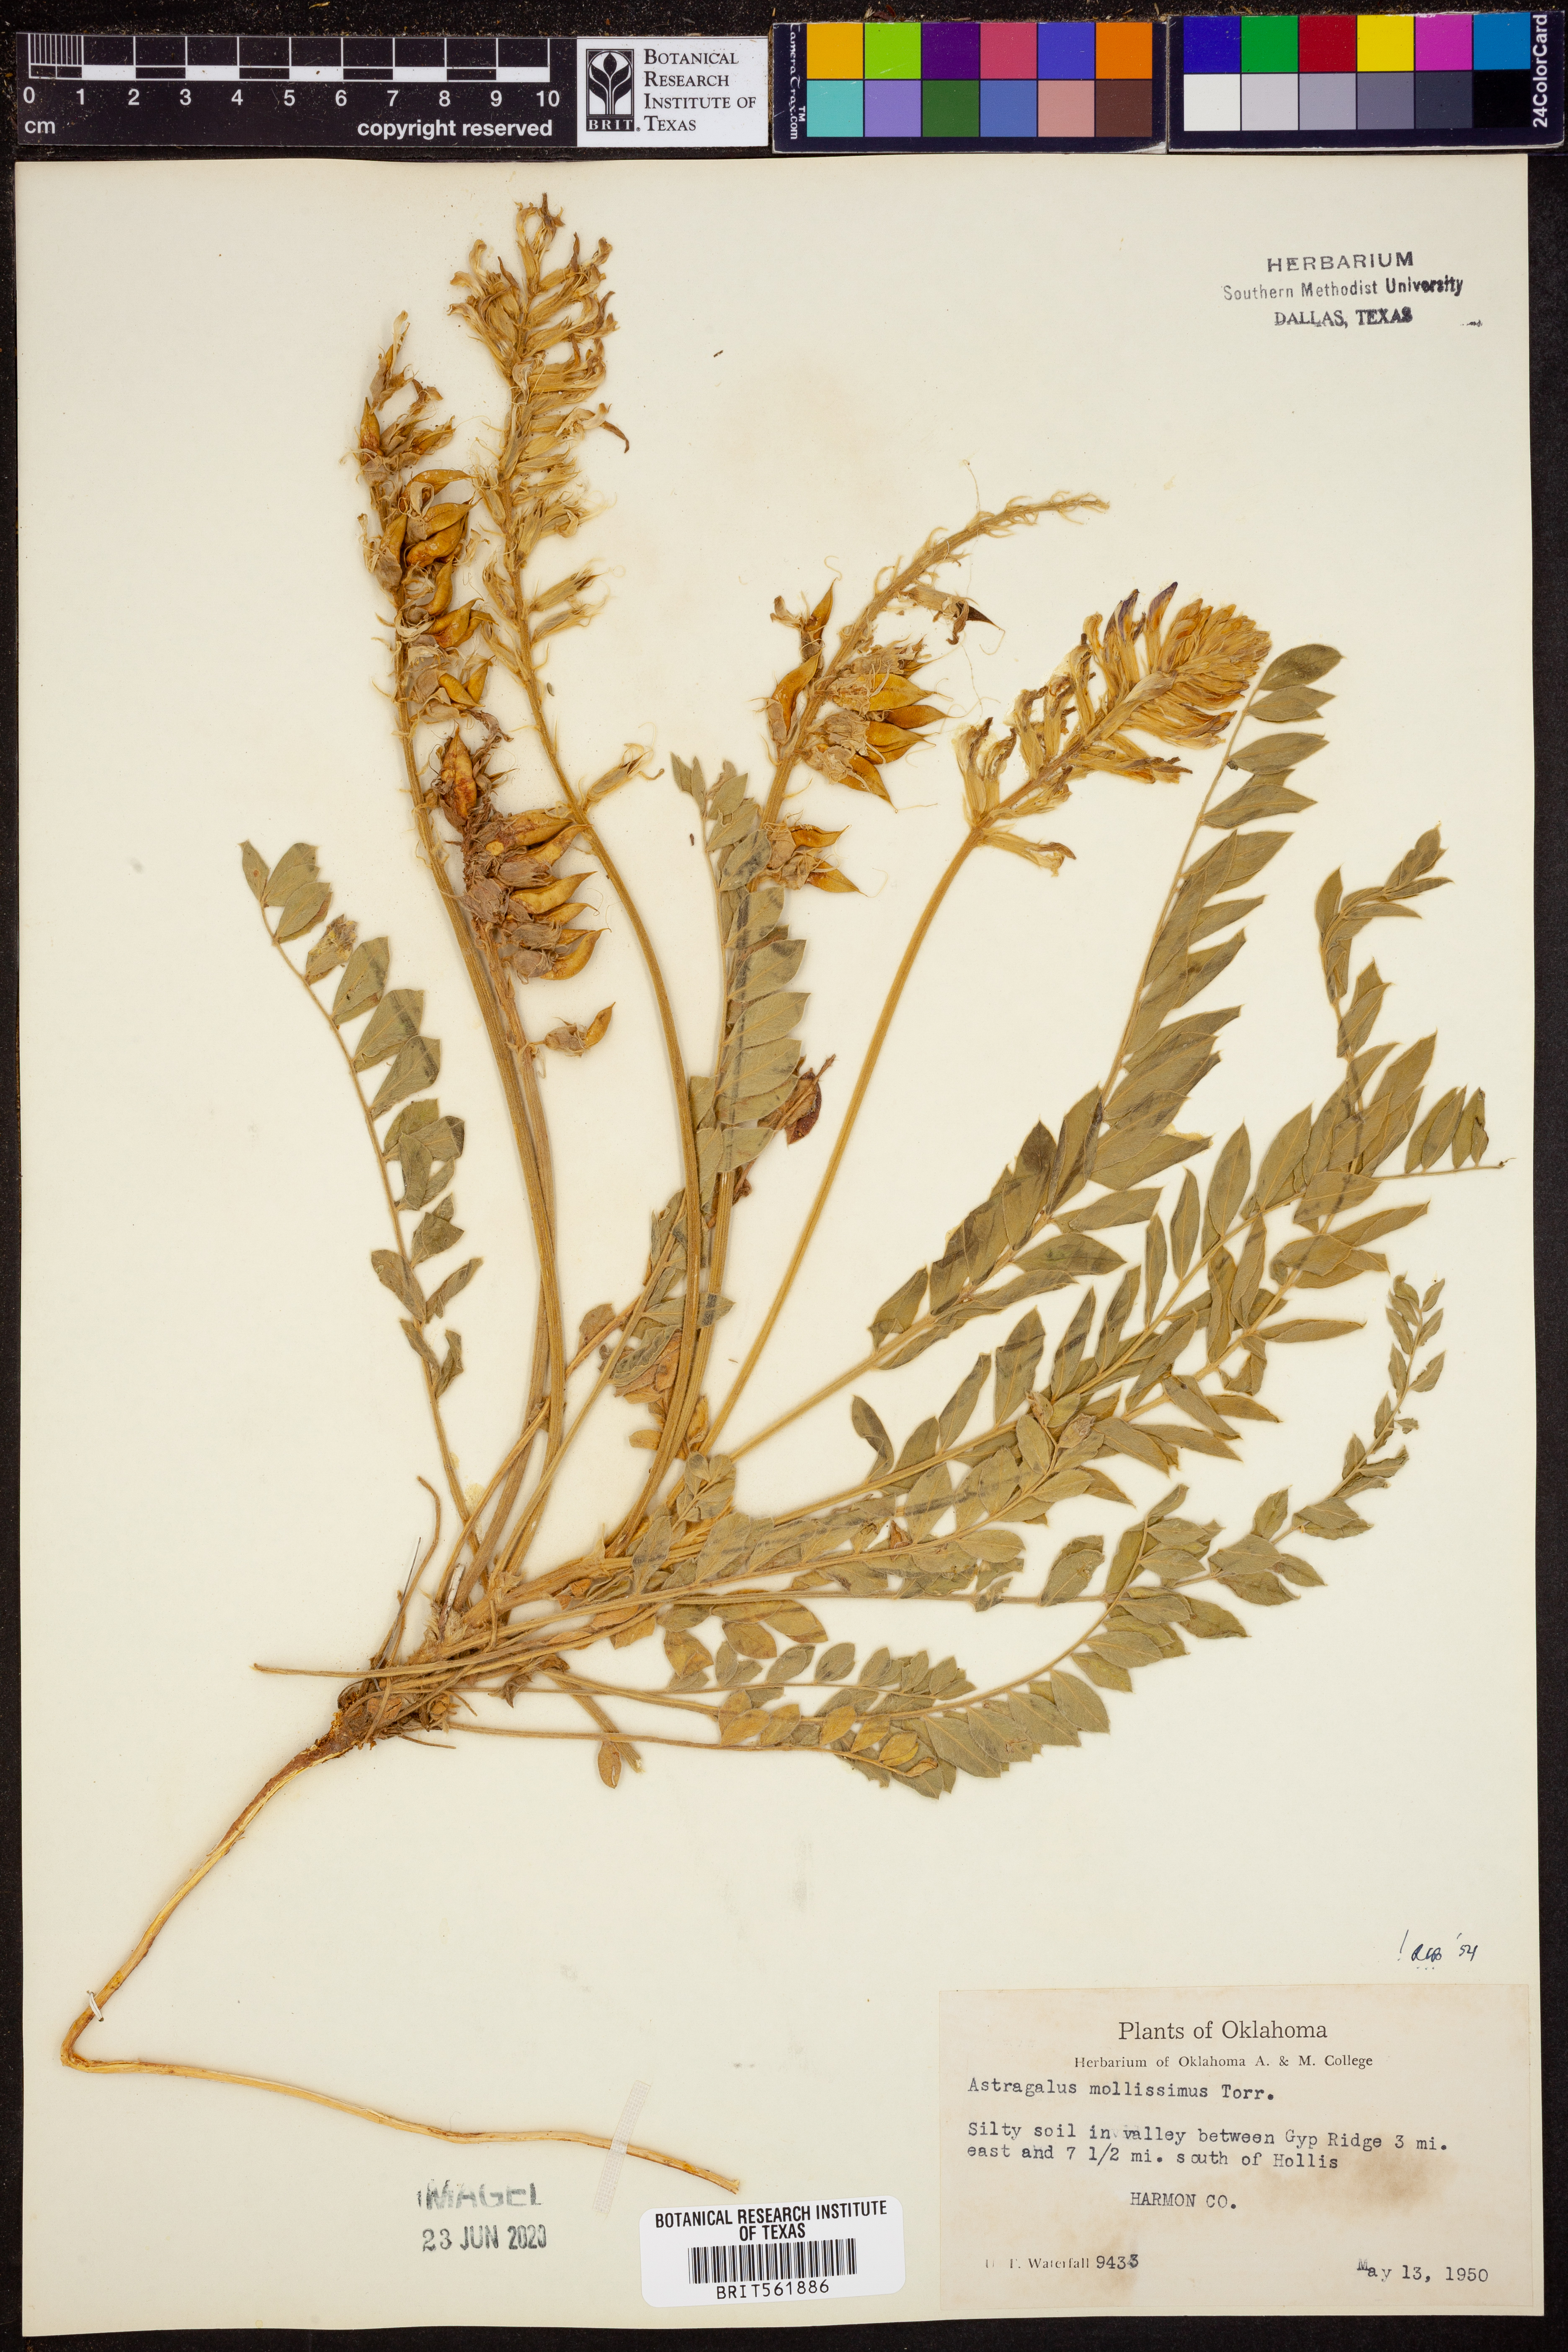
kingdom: Plantae
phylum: Tracheophyta
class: Magnoliopsida
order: Fabales
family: Fabaceae
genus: Astragalus
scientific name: Astragalus mollissimus
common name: Woolly locoweed
